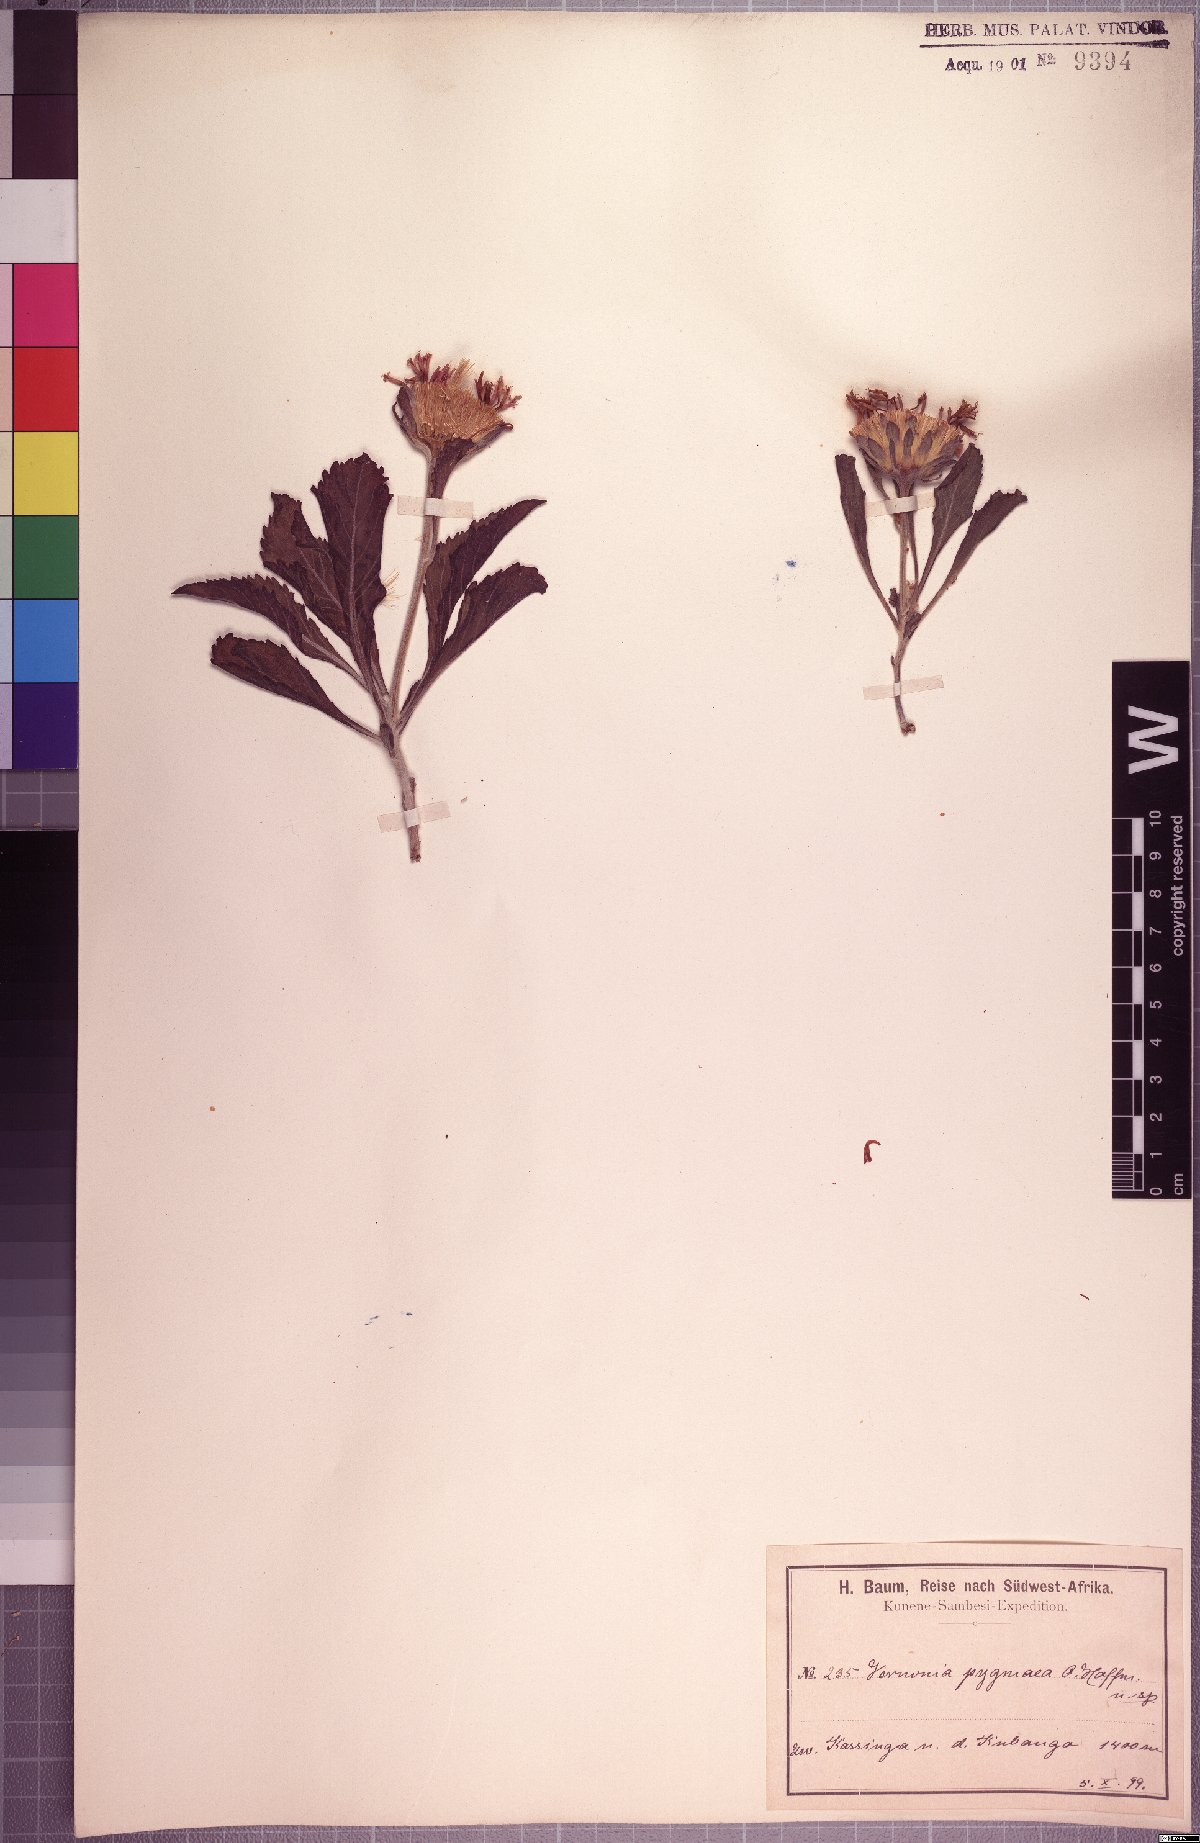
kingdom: Plantae
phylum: Tracheophyta
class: Magnoliopsida
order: Asterales
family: Asteraceae
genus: Vernonia
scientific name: Vernonia pygmaea
